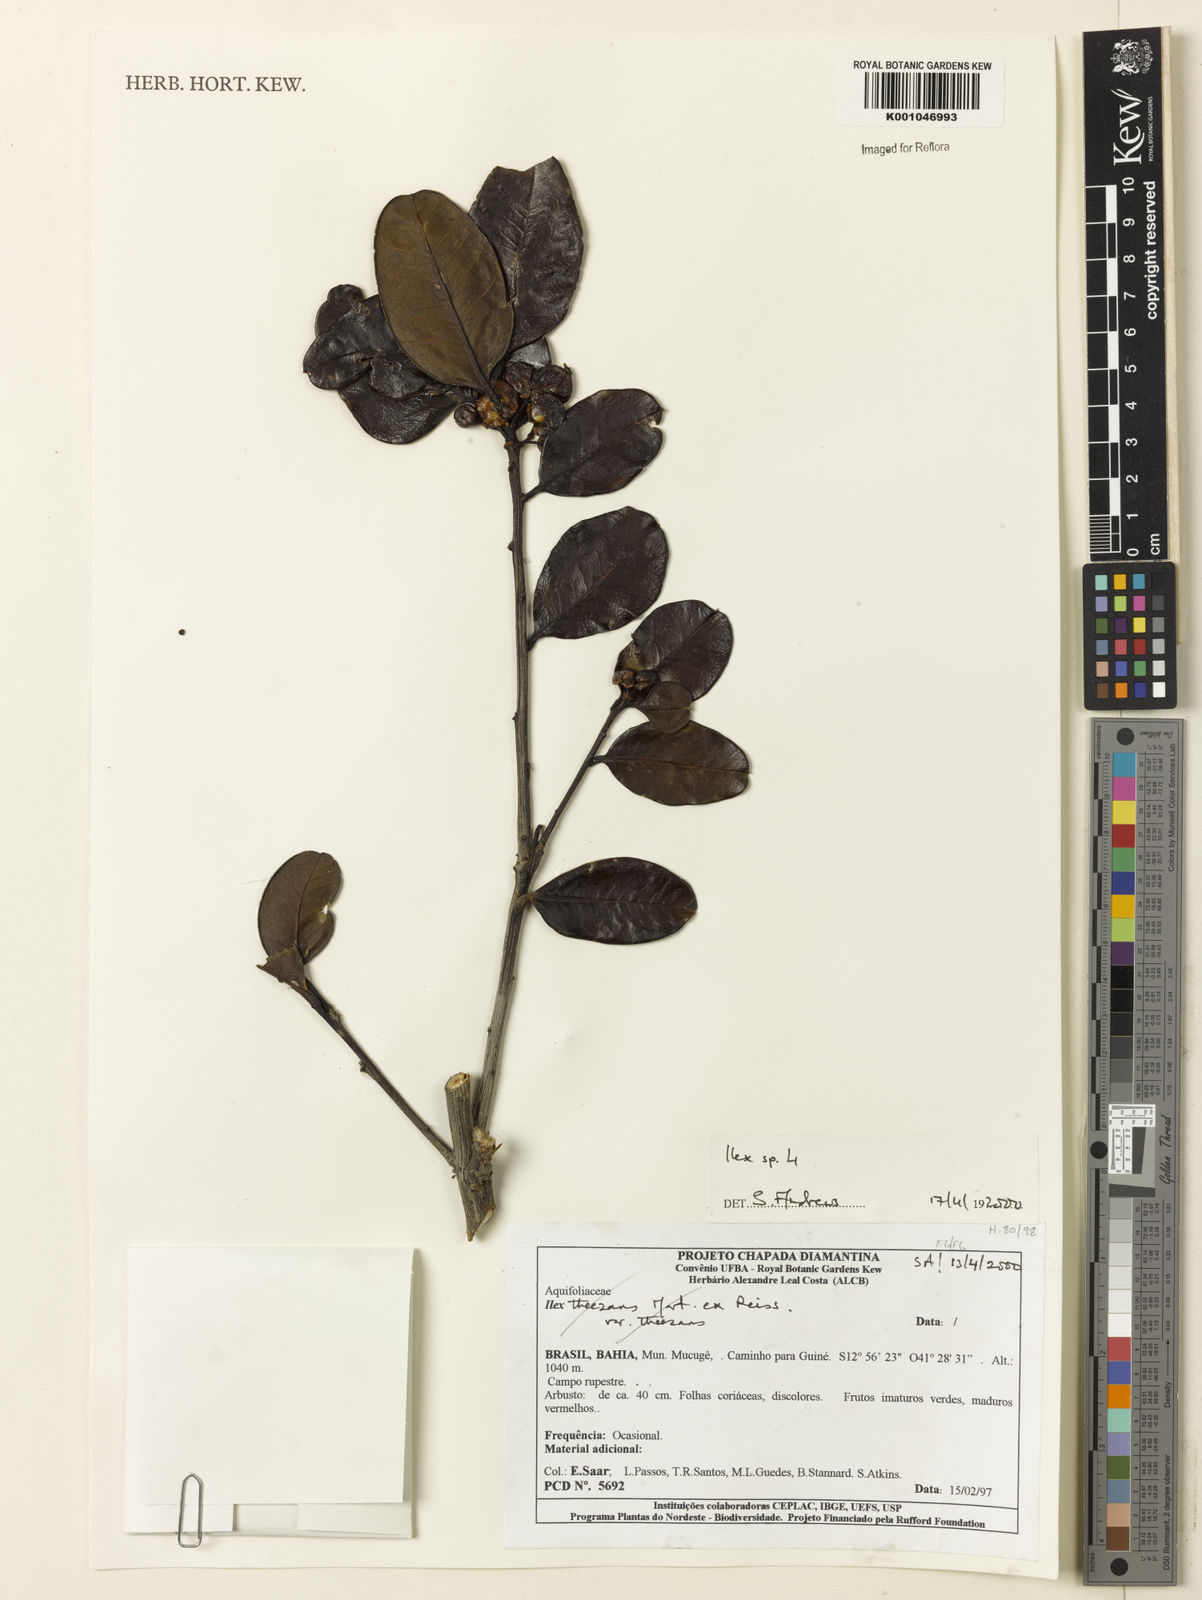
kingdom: Plantae
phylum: Tracheophyta
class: Magnoliopsida
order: Aquifoliales
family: Aquifoliaceae
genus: Ilex
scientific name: Ilex
